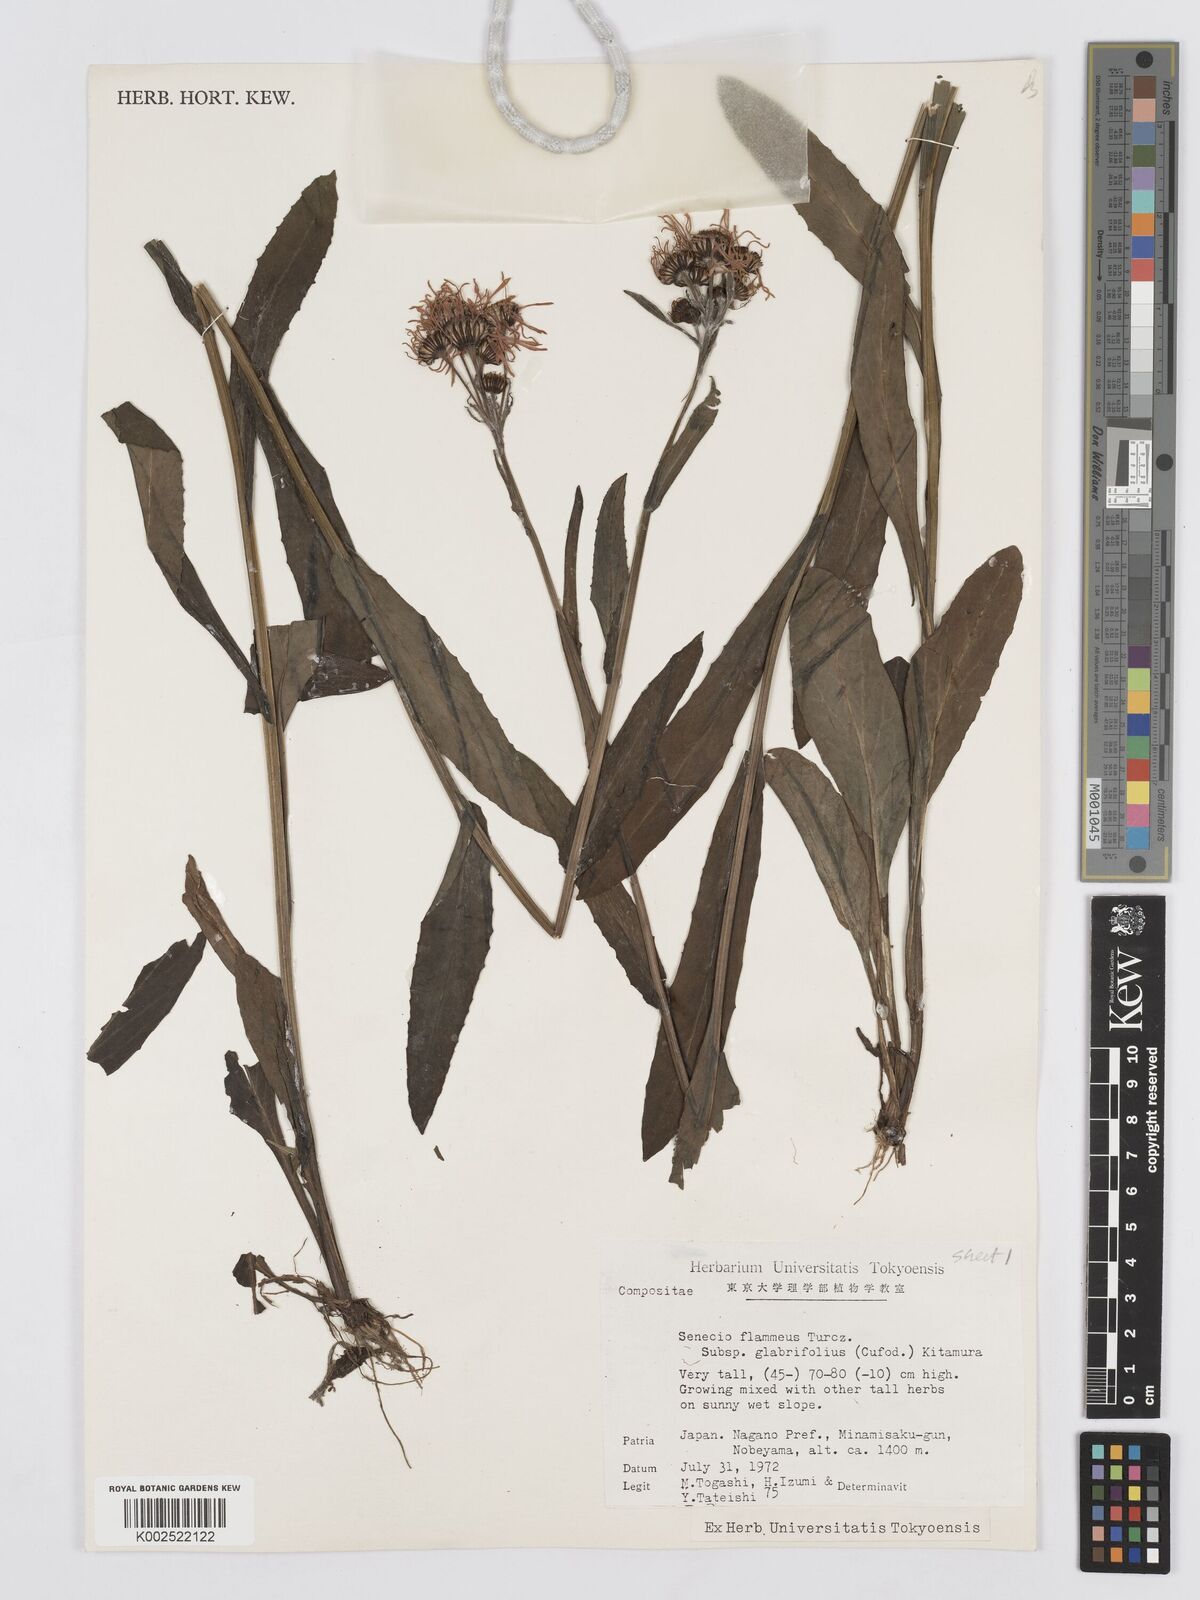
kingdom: Plantae
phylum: Tracheophyta
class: Magnoliopsida
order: Asterales
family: Asteraceae
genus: Tephroseris
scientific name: Tephroseris flammea
